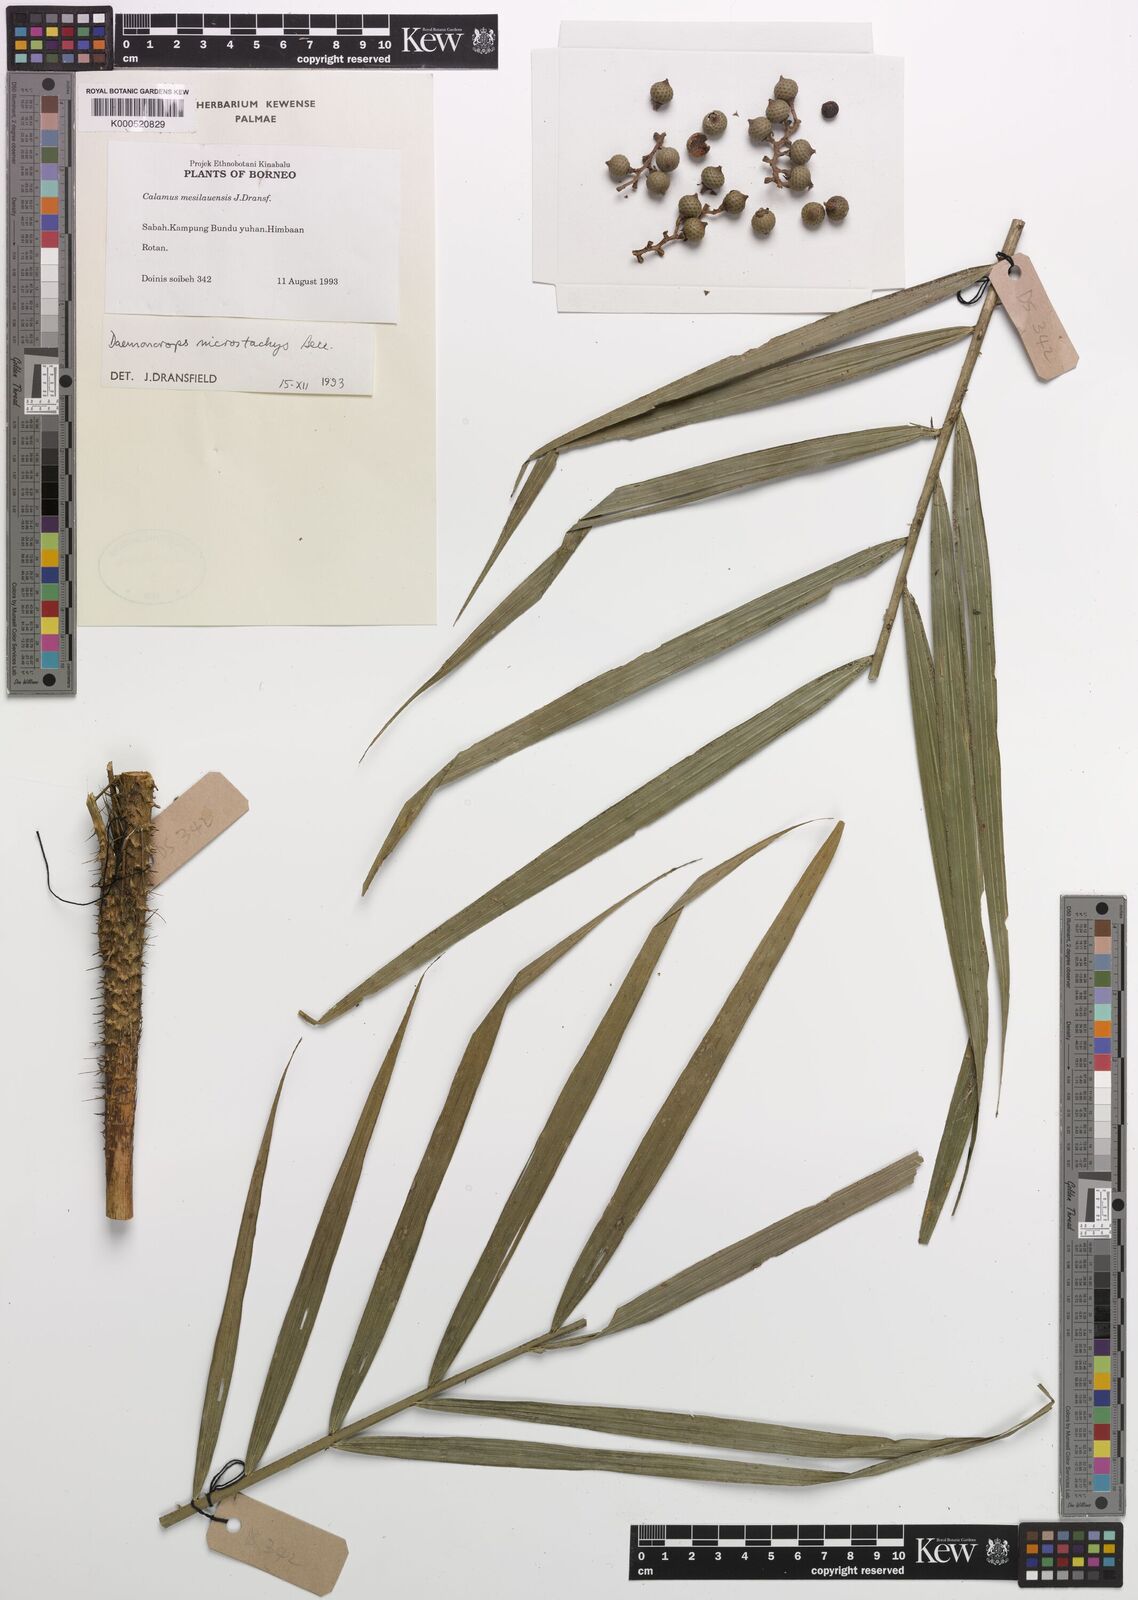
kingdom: Plantae
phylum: Tracheophyta
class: Liliopsida
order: Arecales
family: Arecaceae
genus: Calamus
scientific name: Calamus kunstleri
